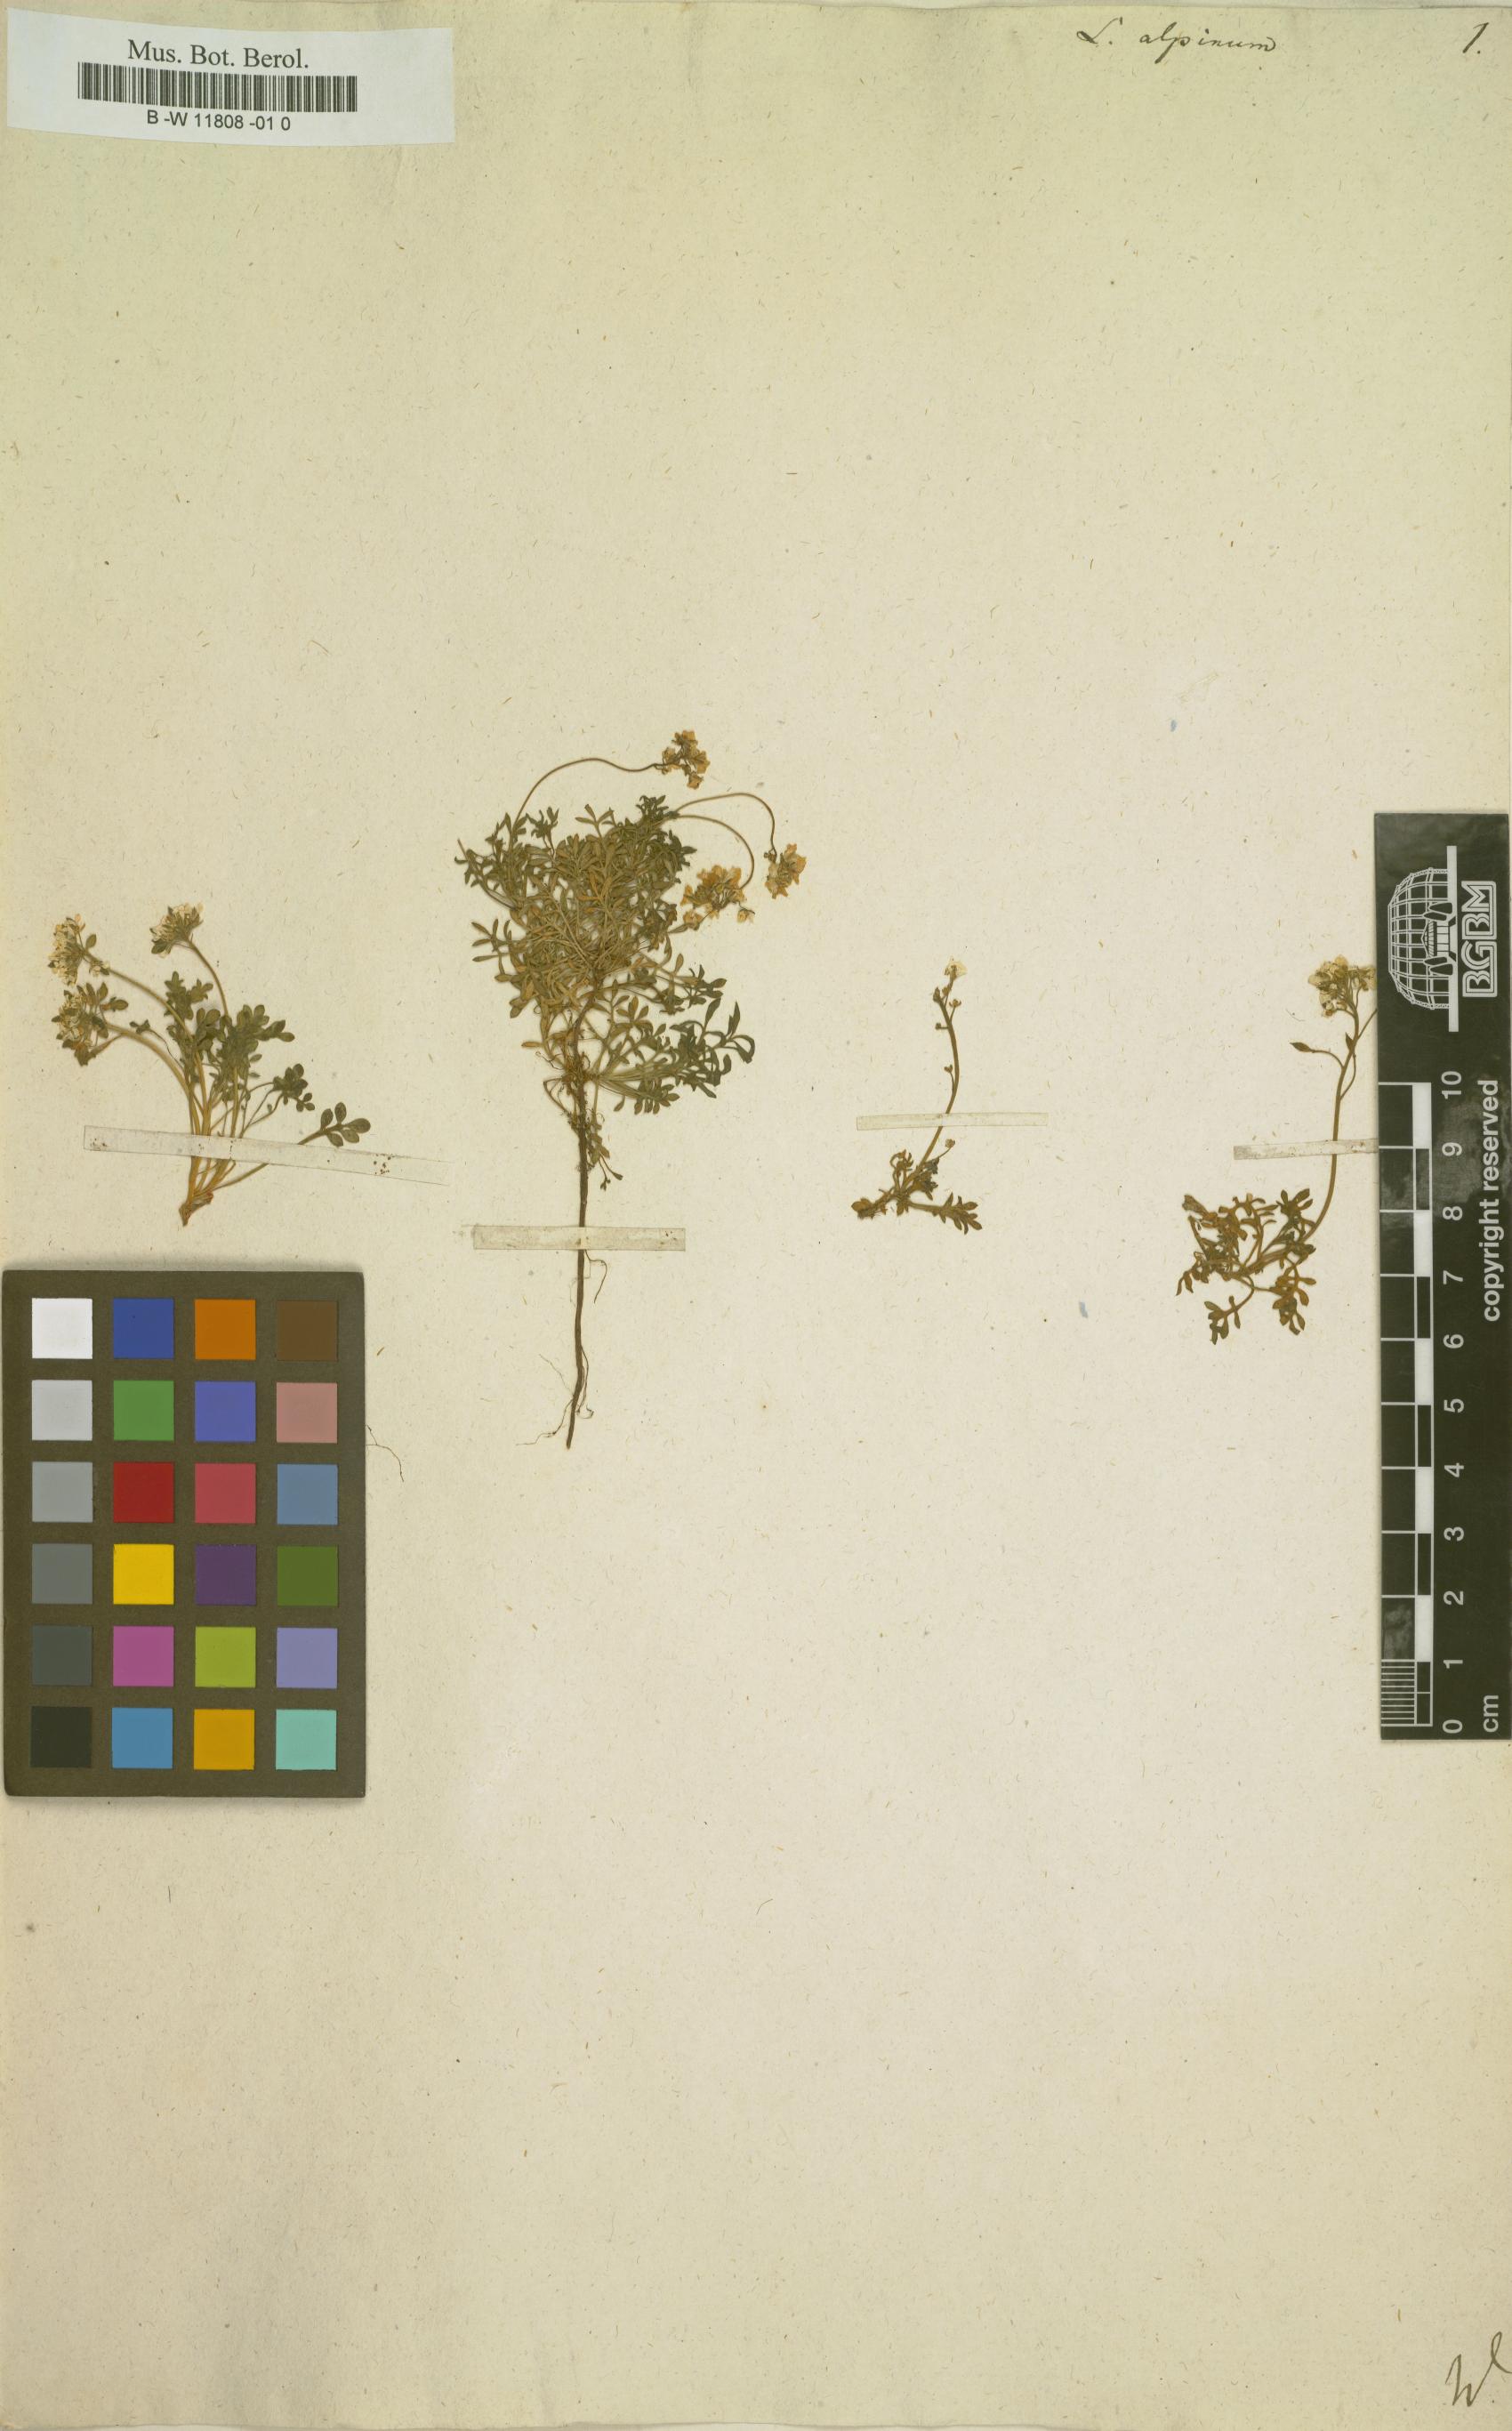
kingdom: Plantae
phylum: Tracheophyta
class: Magnoliopsida
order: Brassicales
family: Brassicaceae
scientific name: Brassicaceae
